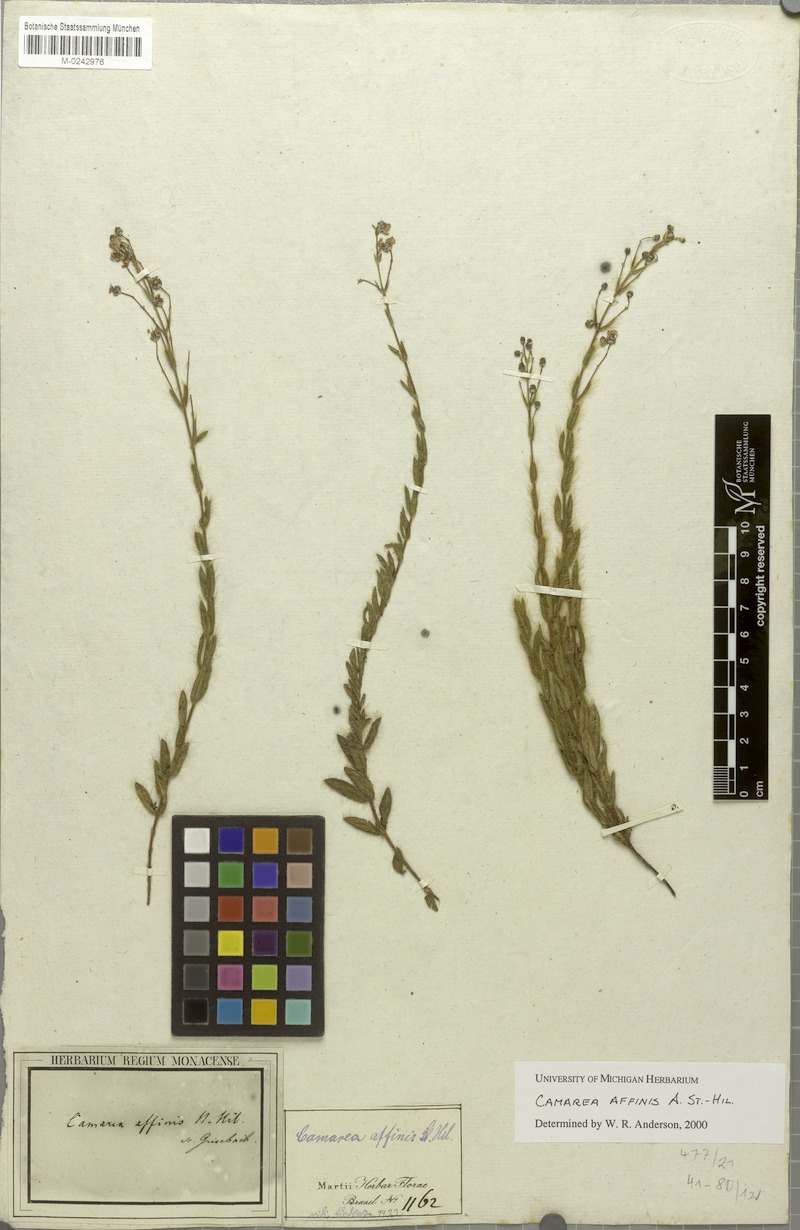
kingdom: Plantae
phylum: Tracheophyta
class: Magnoliopsida
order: Malpighiales
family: Malpighiaceae
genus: Camarea
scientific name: Camarea affinis
